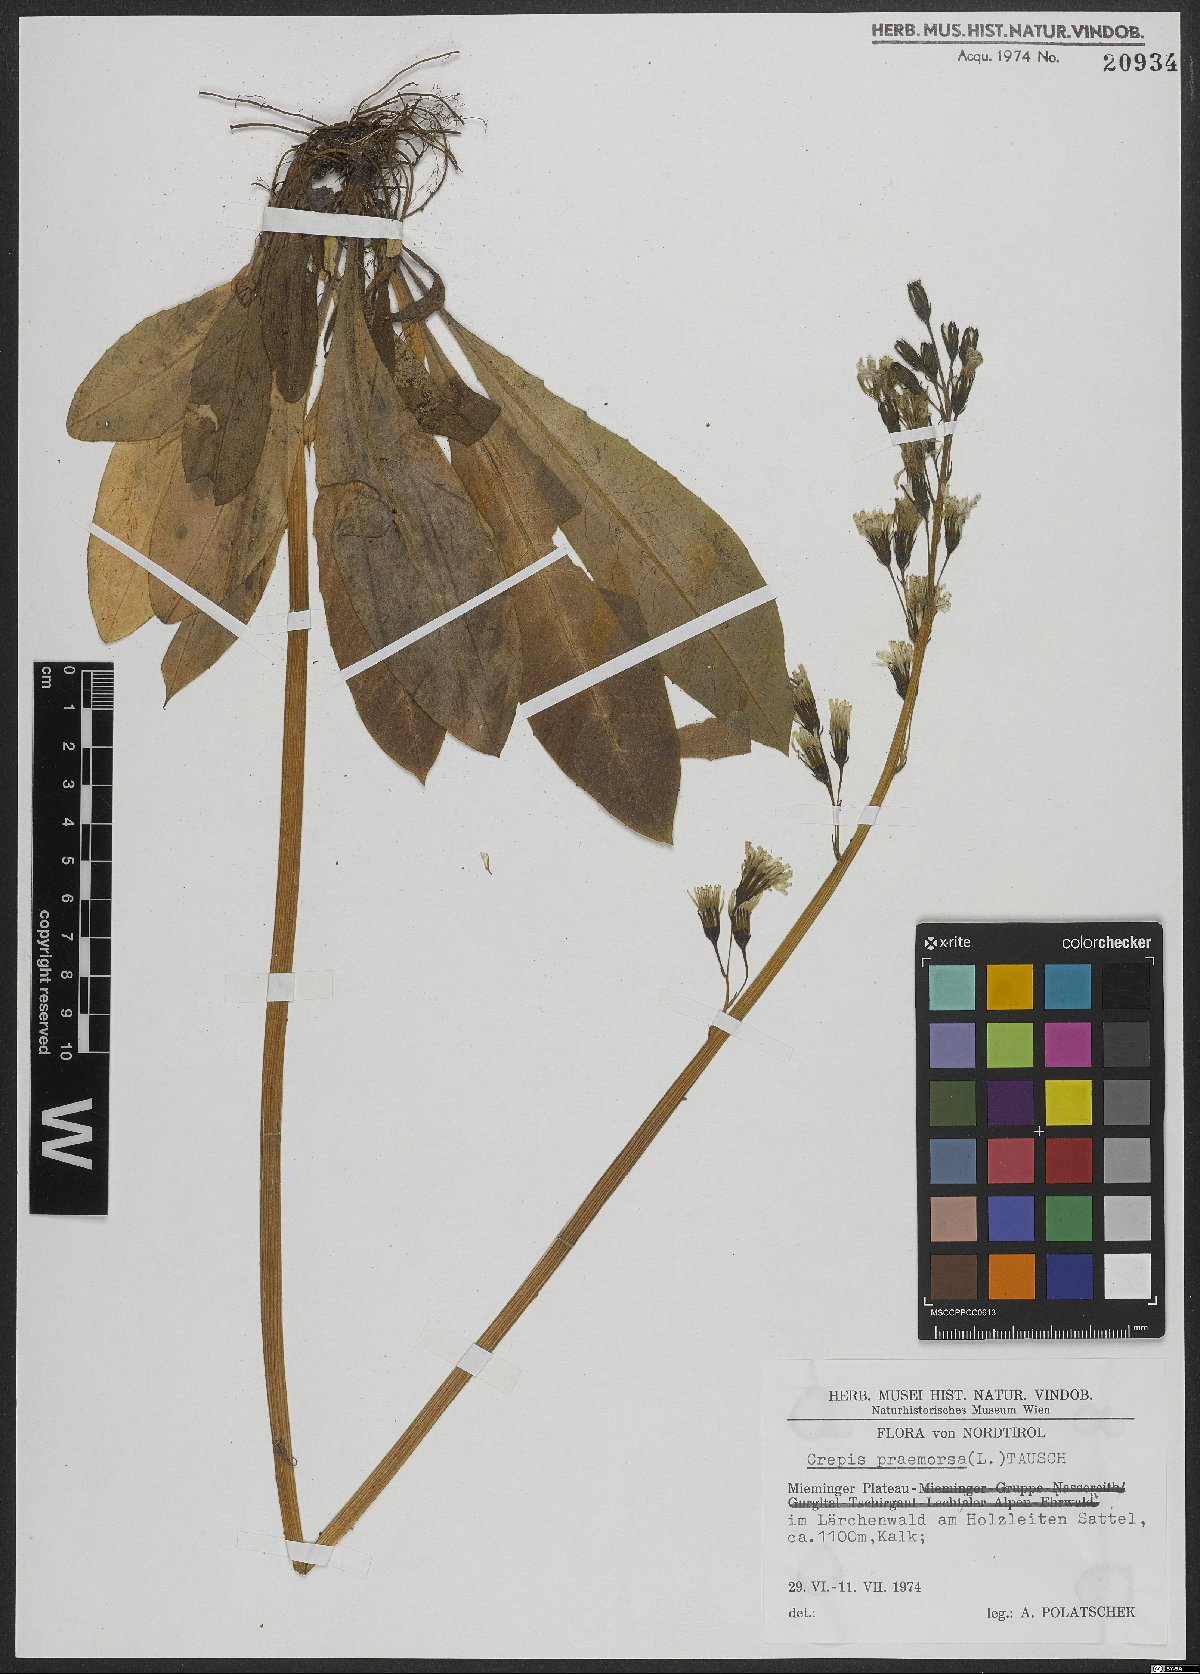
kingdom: Plantae
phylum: Tracheophyta
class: Magnoliopsida
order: Asterales
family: Asteraceae
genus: Crepis
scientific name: Crepis praemorsa
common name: Leafless hawk's-beard
